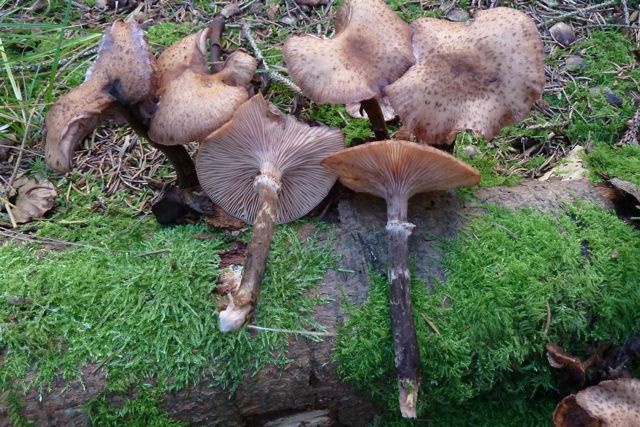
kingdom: Fungi
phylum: Basidiomycota
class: Agaricomycetes
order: Agaricales
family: Physalacriaceae
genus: Armillaria
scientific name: Armillaria ostoyae
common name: mørk honningsvamp
